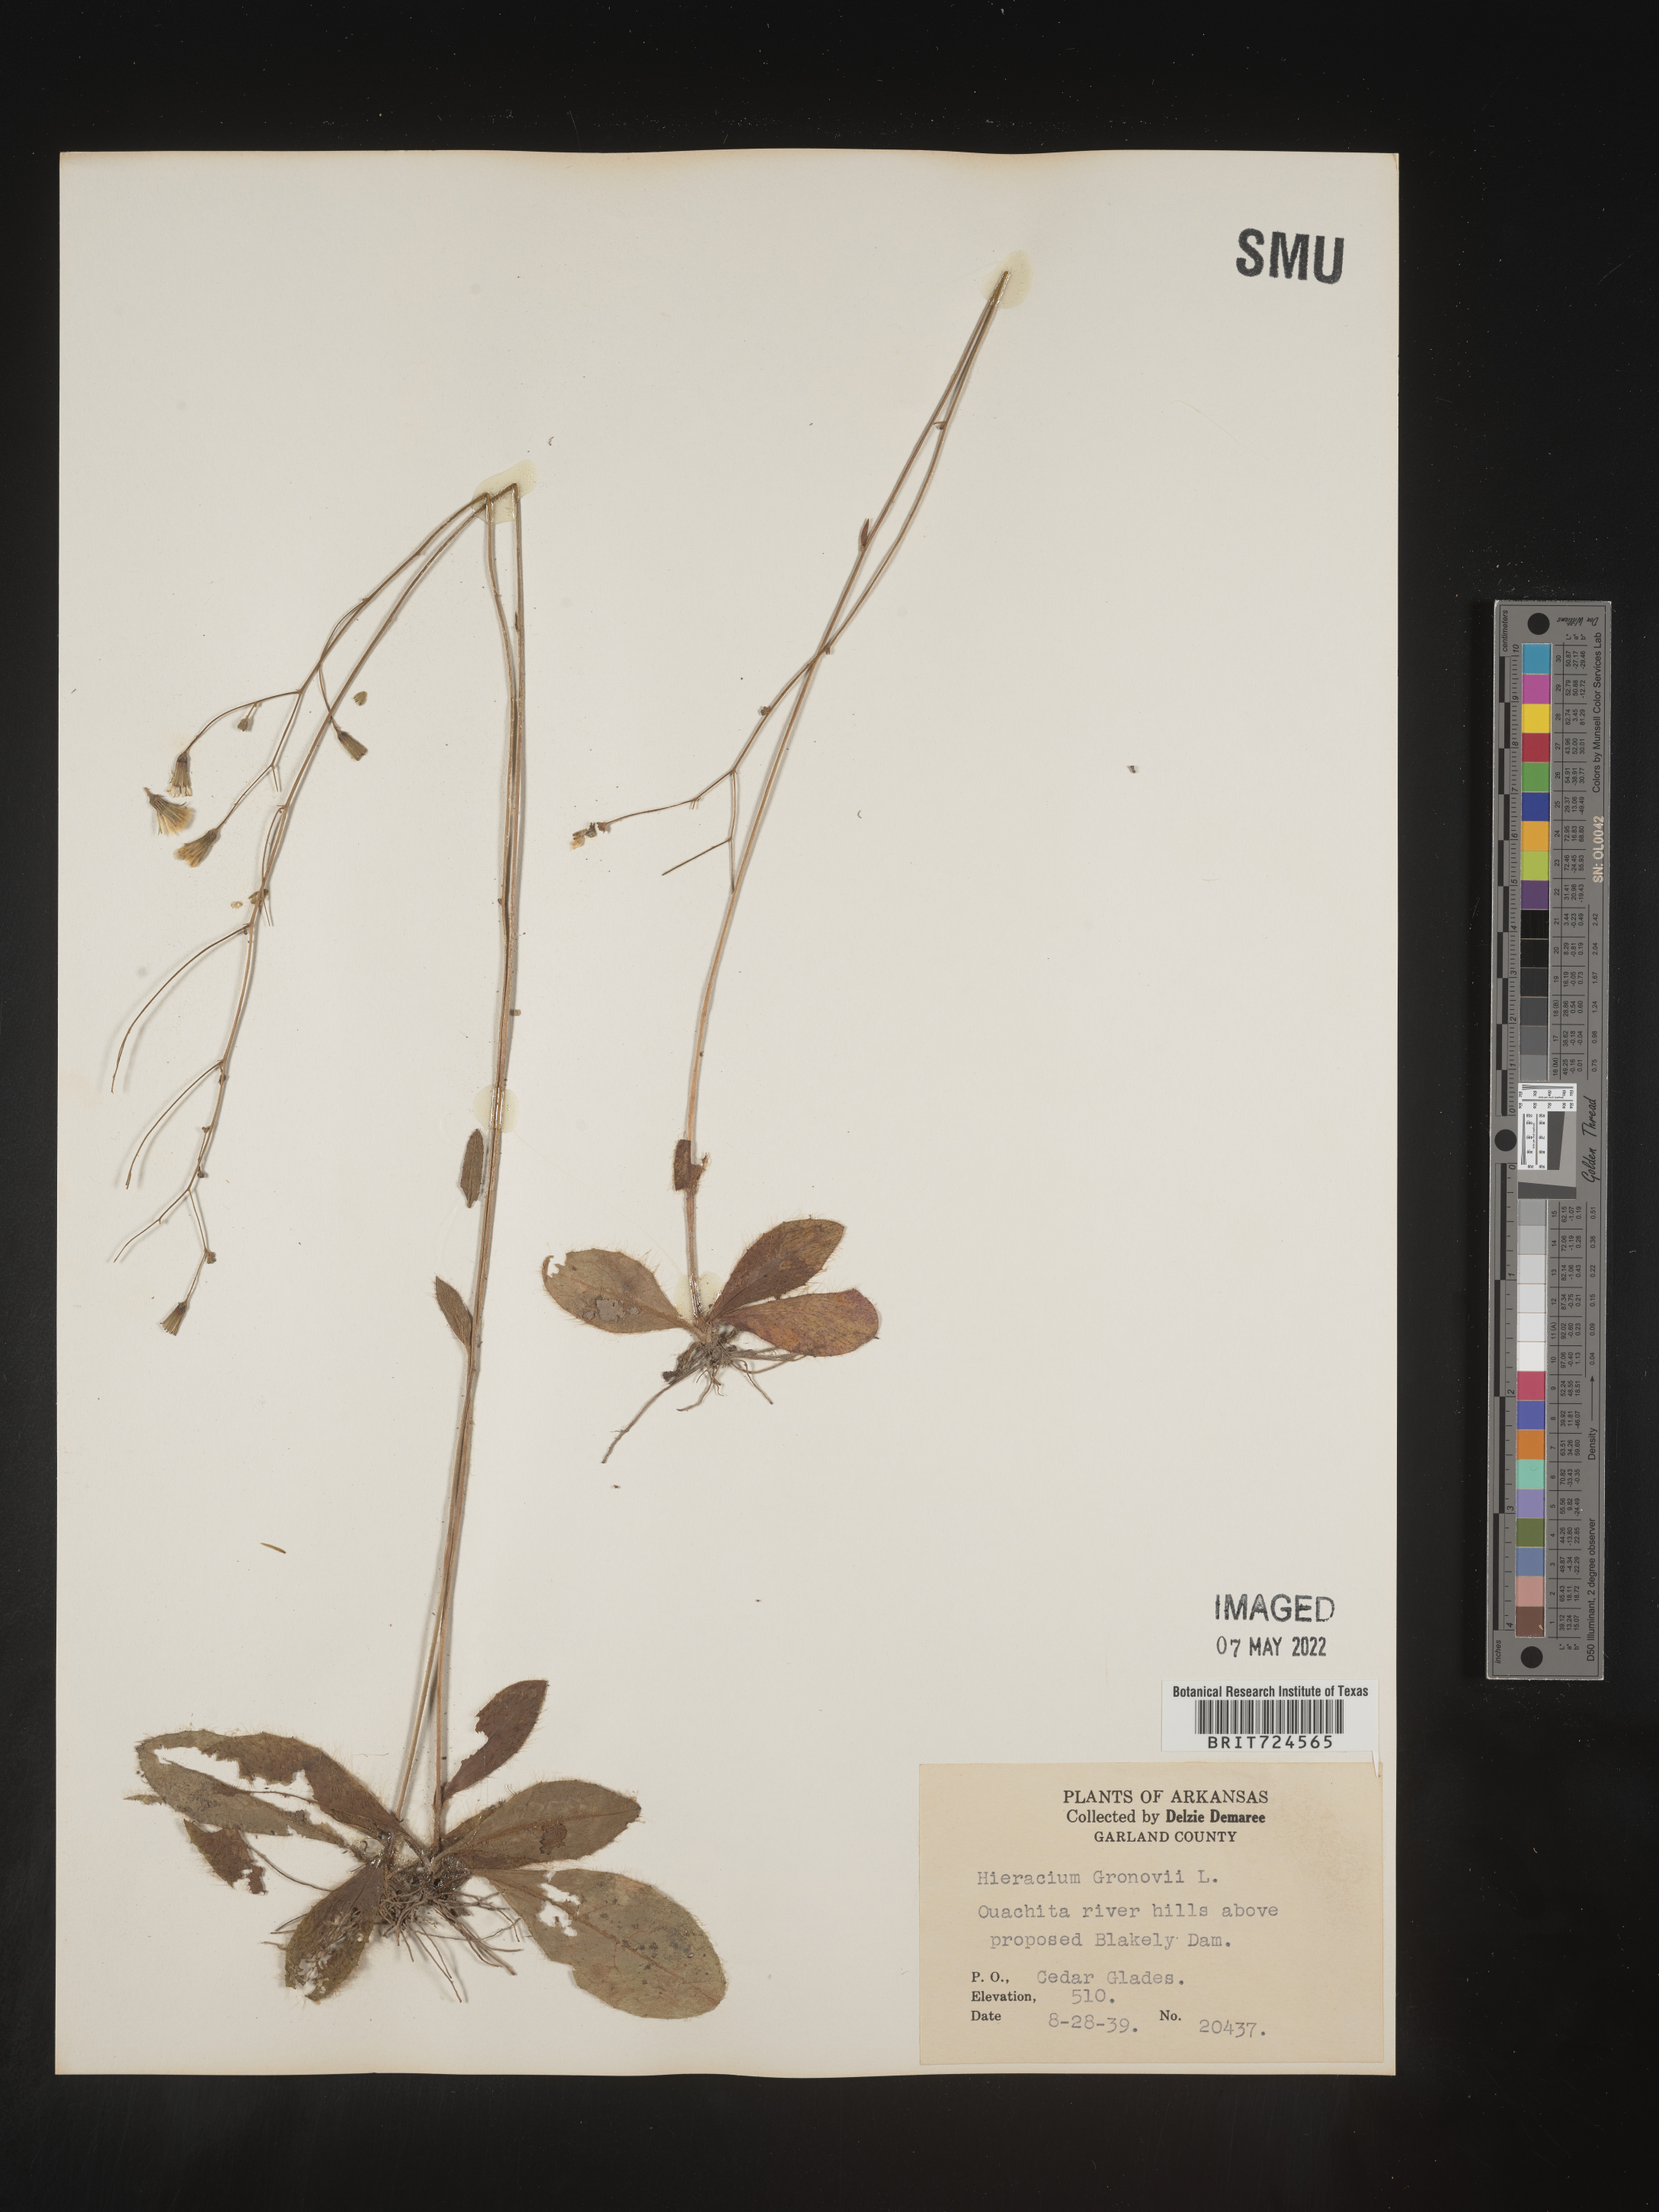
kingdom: Plantae
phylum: Tracheophyta
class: Magnoliopsida
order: Asterales
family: Asteraceae
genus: Hieracium
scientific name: Hieracium gronovii
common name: Beaked hawkweed
